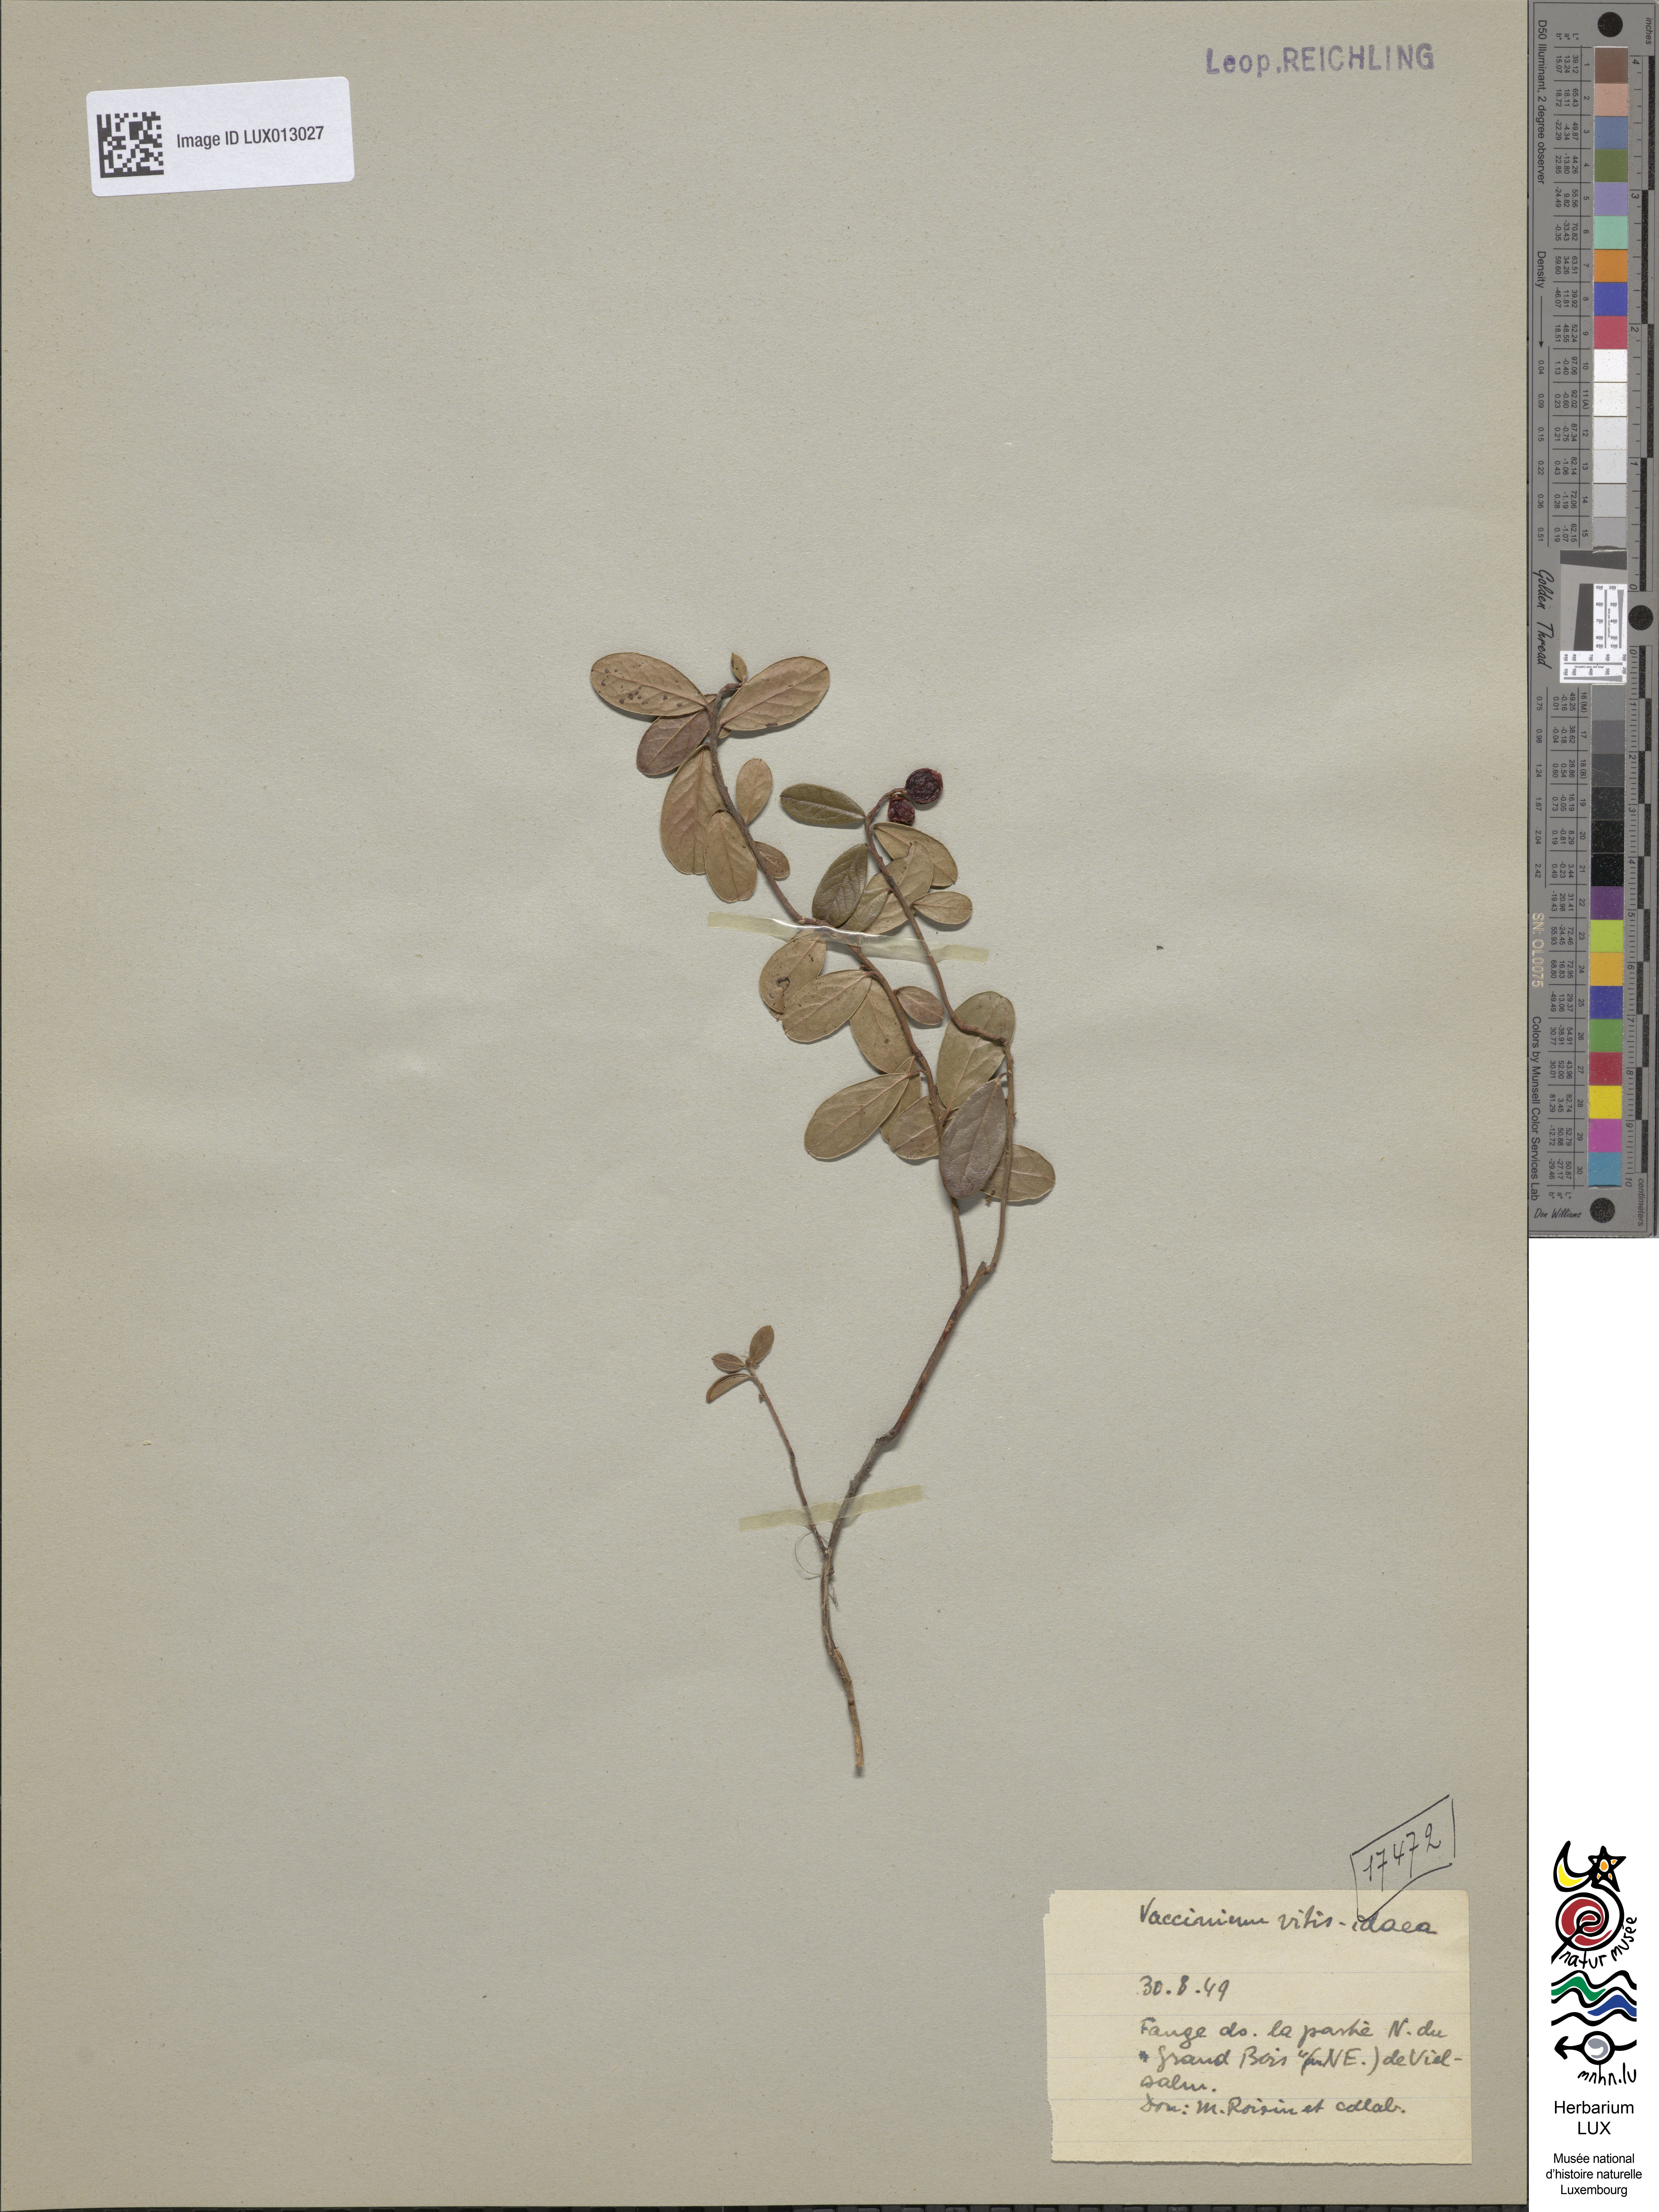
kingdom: Plantae
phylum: Tracheophyta
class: Magnoliopsida
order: Ericales
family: Ericaceae
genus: Vaccinium
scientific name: Vaccinium vitis-idaea
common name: Cowberry
